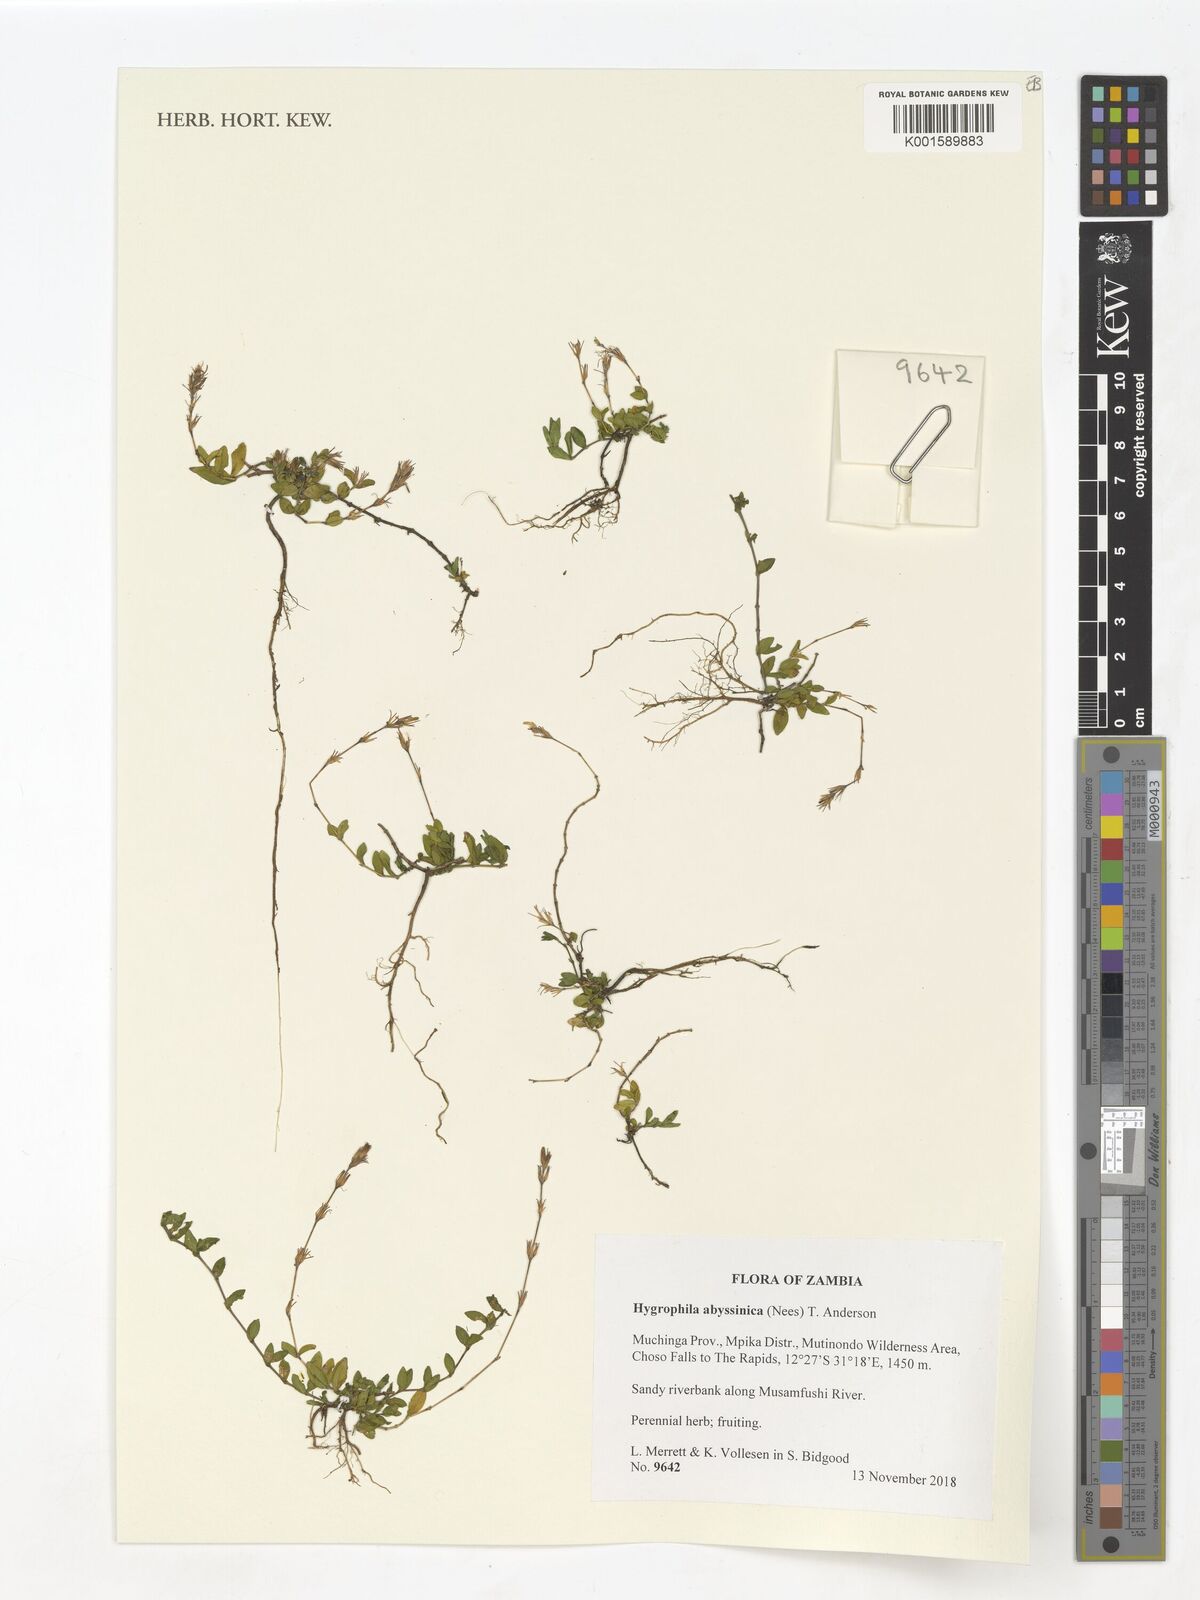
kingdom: Plantae
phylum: Tracheophyta
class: Magnoliopsida
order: Lamiales
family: Acanthaceae
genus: Hygrophila
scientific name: Hygrophila abyssinica
